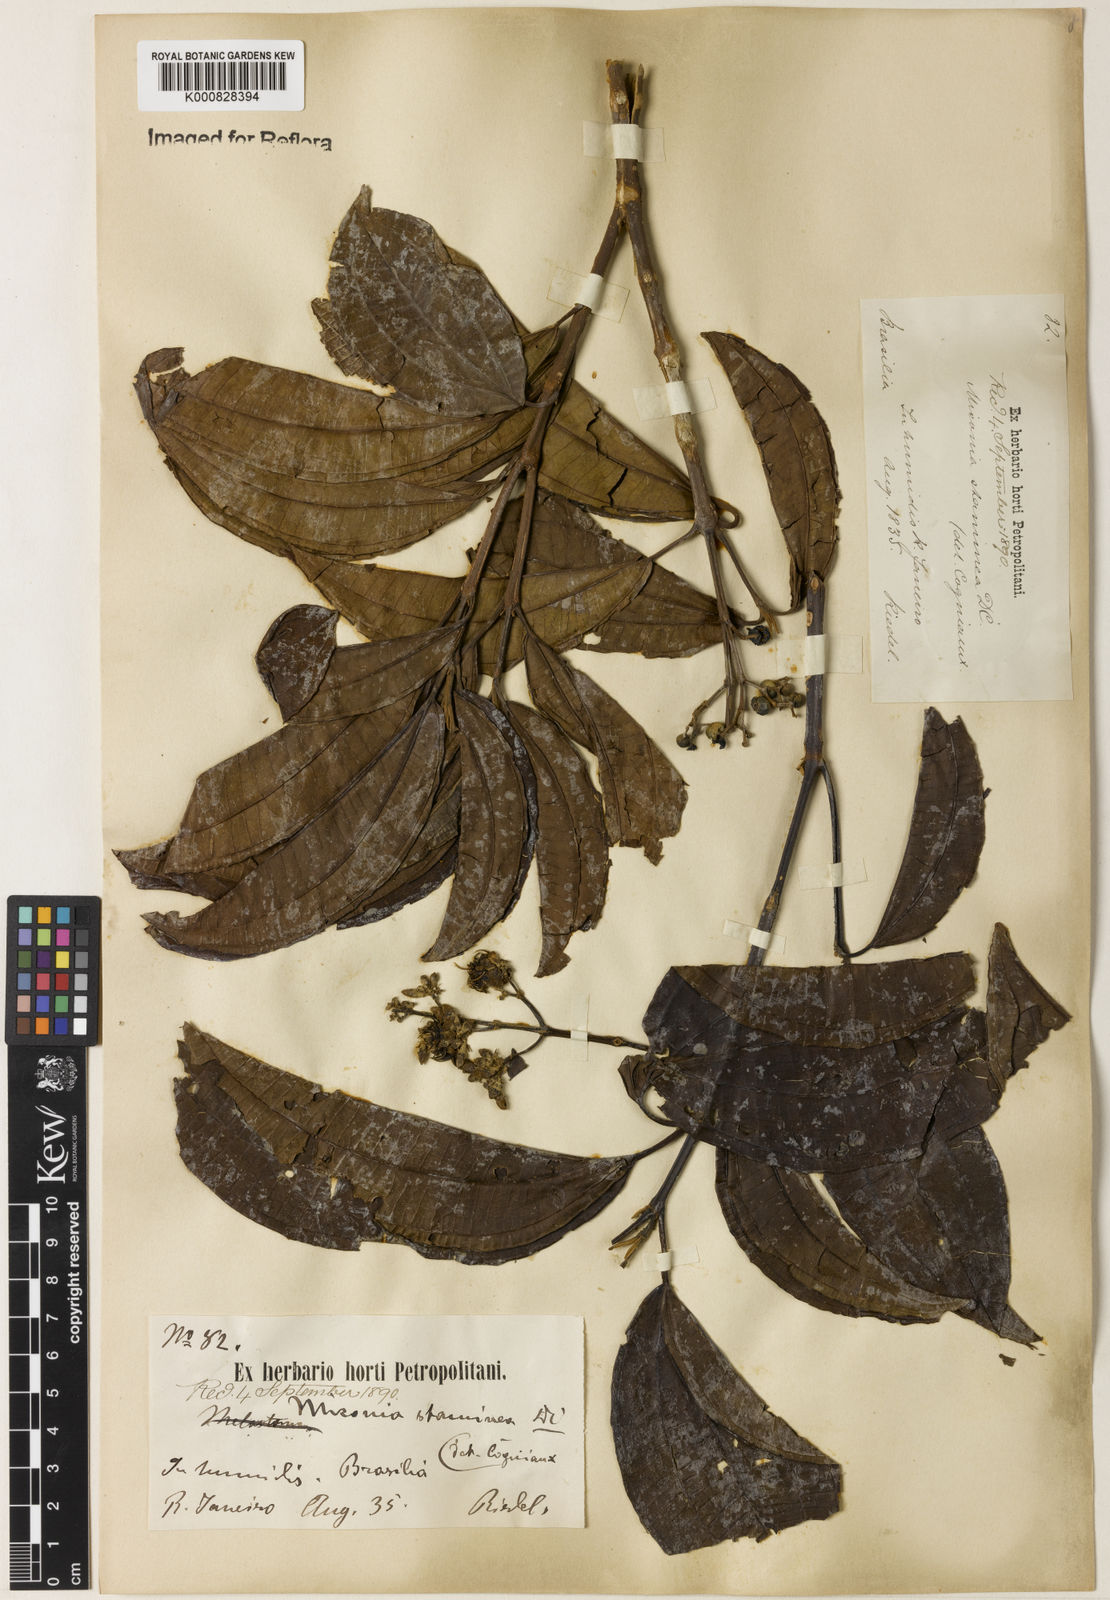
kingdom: Plantae
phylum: Tracheophyta
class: Magnoliopsida
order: Myrtales
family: Melastomataceae
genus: Miconia
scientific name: Miconia staminea
